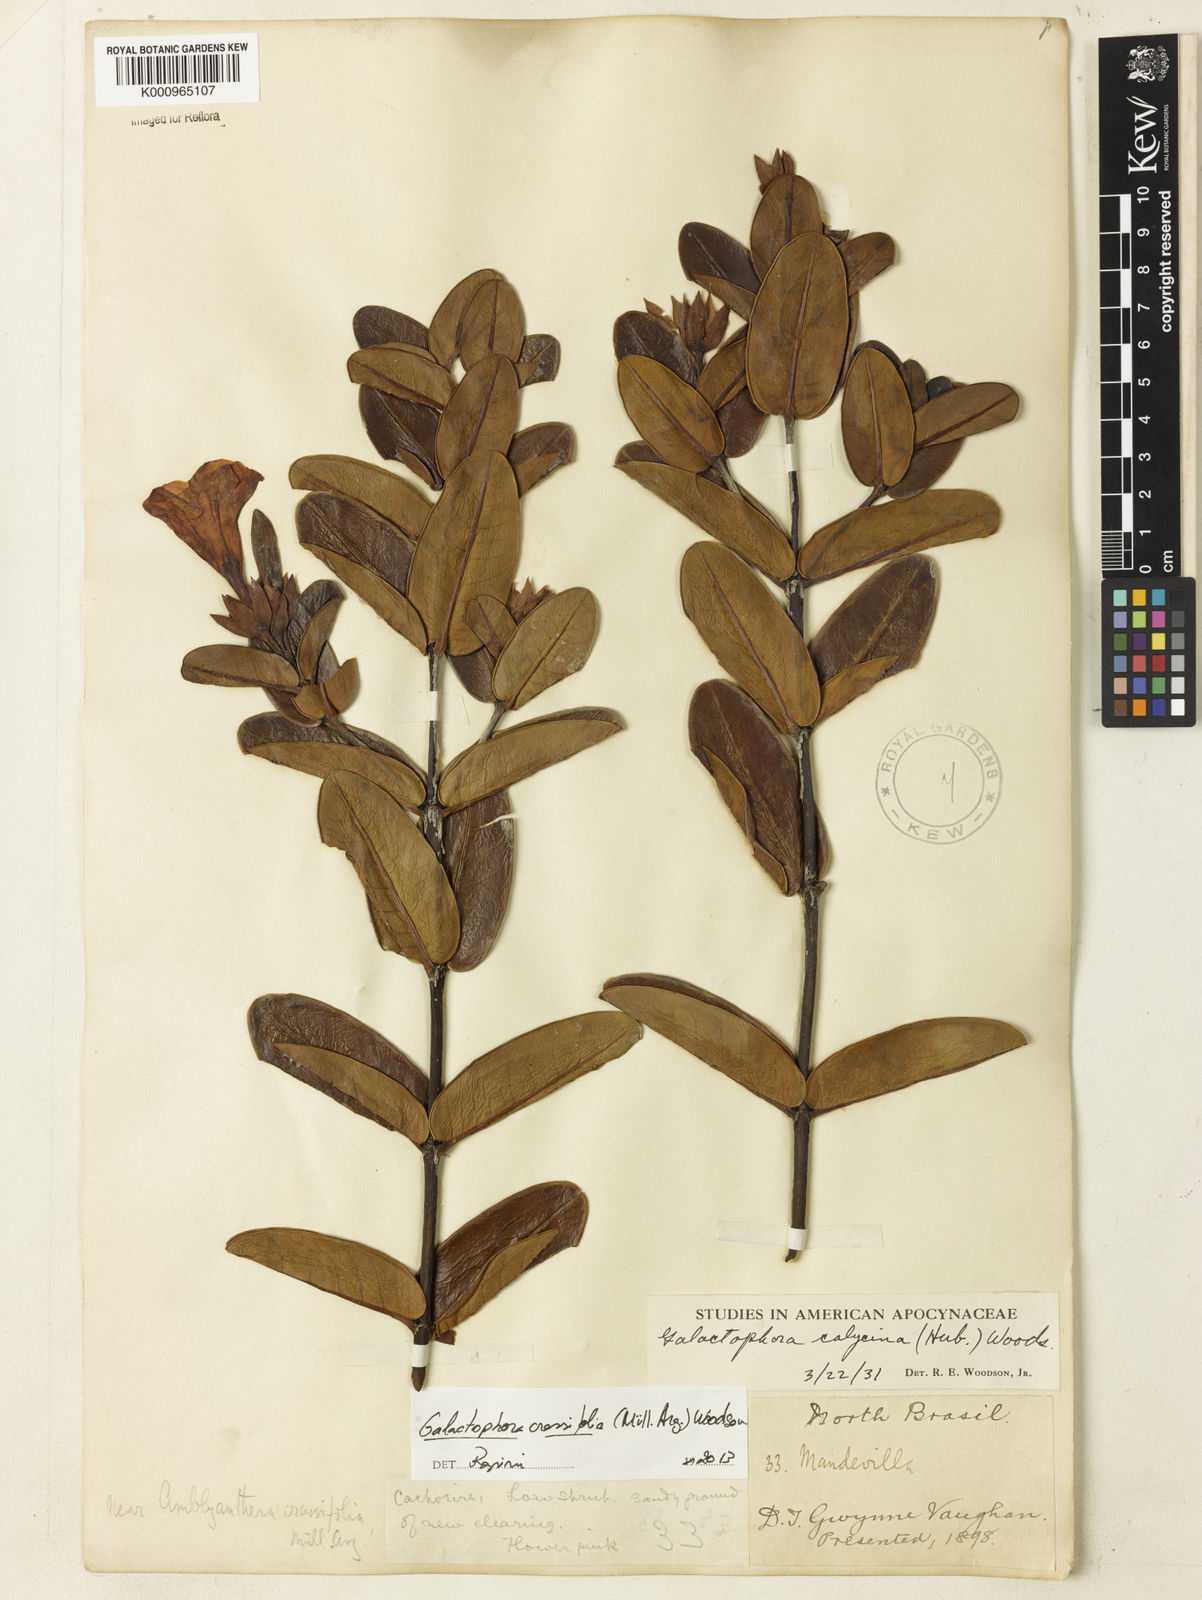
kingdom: Plantae
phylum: Tracheophyta
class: Magnoliopsida
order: Gentianales
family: Apocynaceae
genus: Galactophora
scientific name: Galactophora
